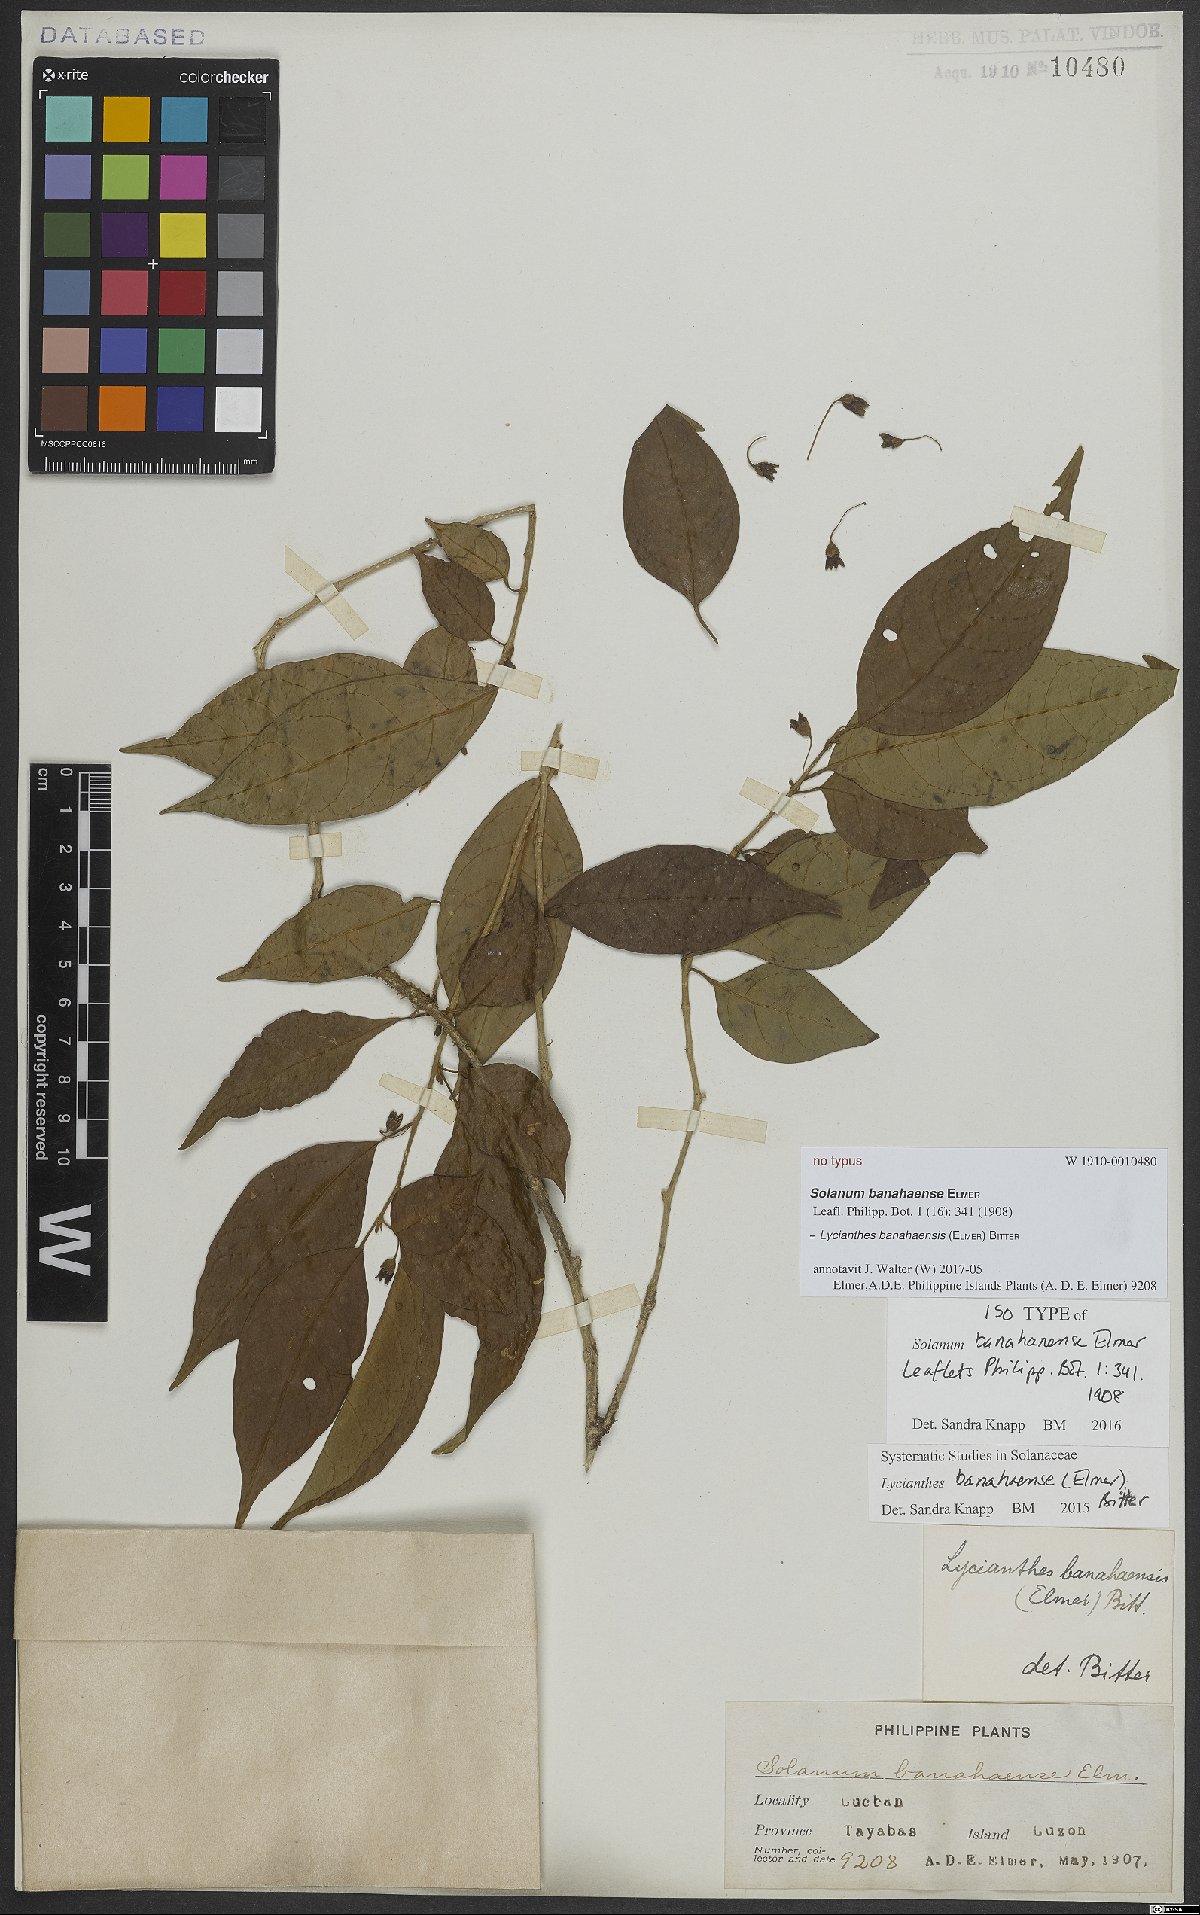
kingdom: Plantae
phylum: Tracheophyta
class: Magnoliopsida
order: Solanales
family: Solanaceae
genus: Lycianthes
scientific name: Lycianthes banahaensis
